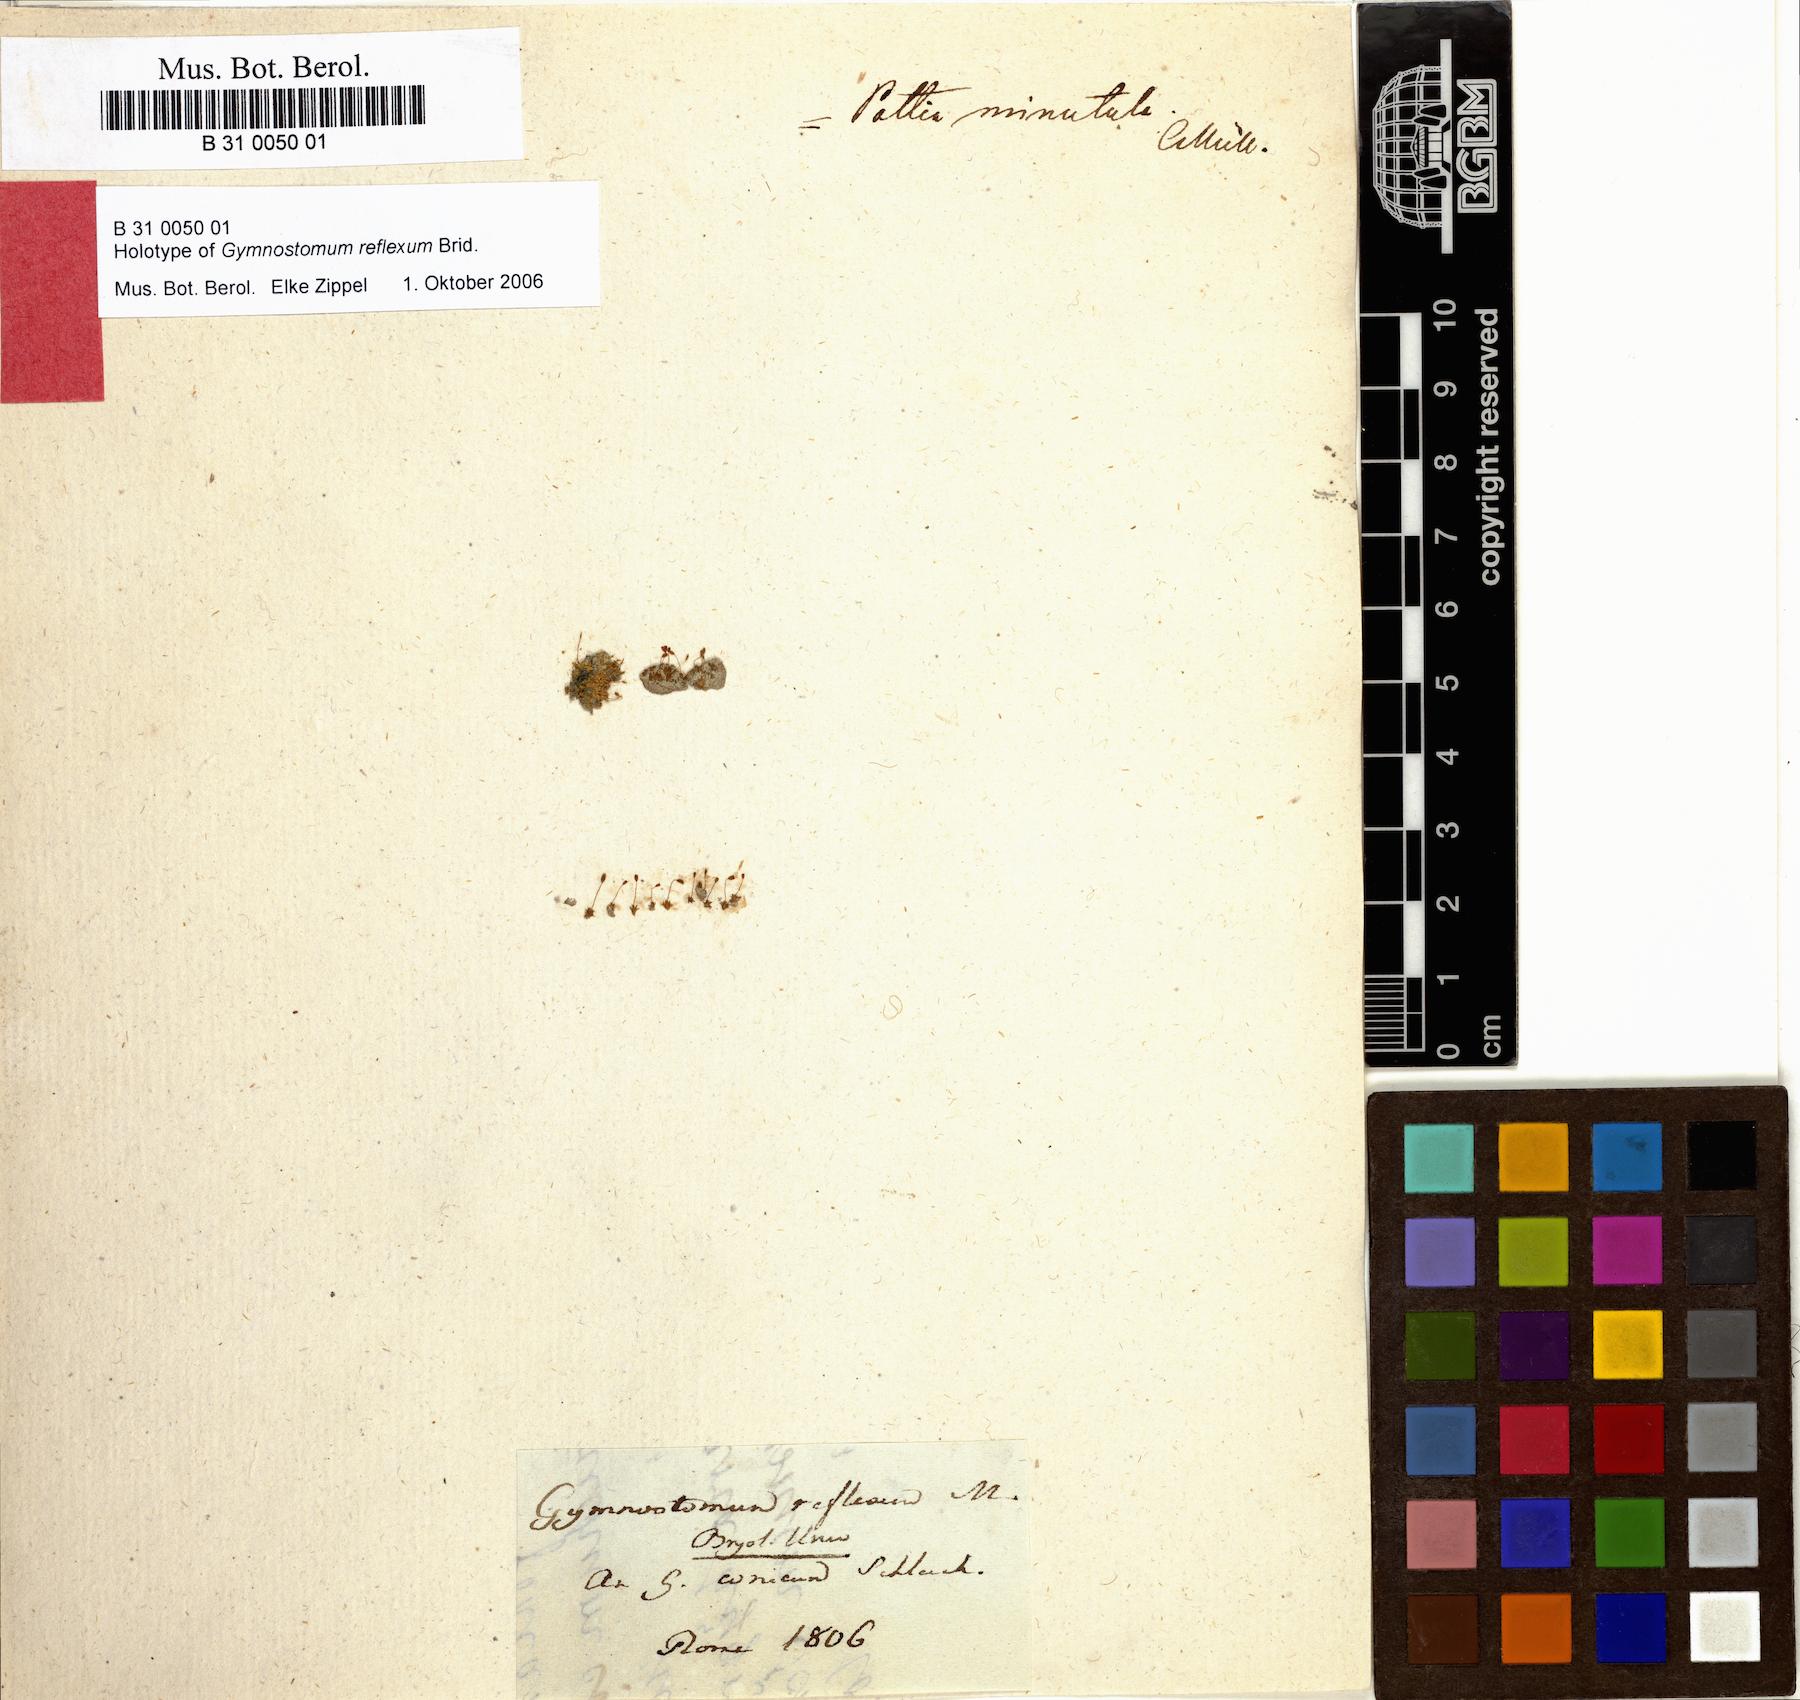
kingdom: Plantae
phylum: Bryophyta
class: Bryopsida
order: Pottiales
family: Pottiaceae
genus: Microbryum
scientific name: Microbryum davallianum
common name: Smallest pottia
